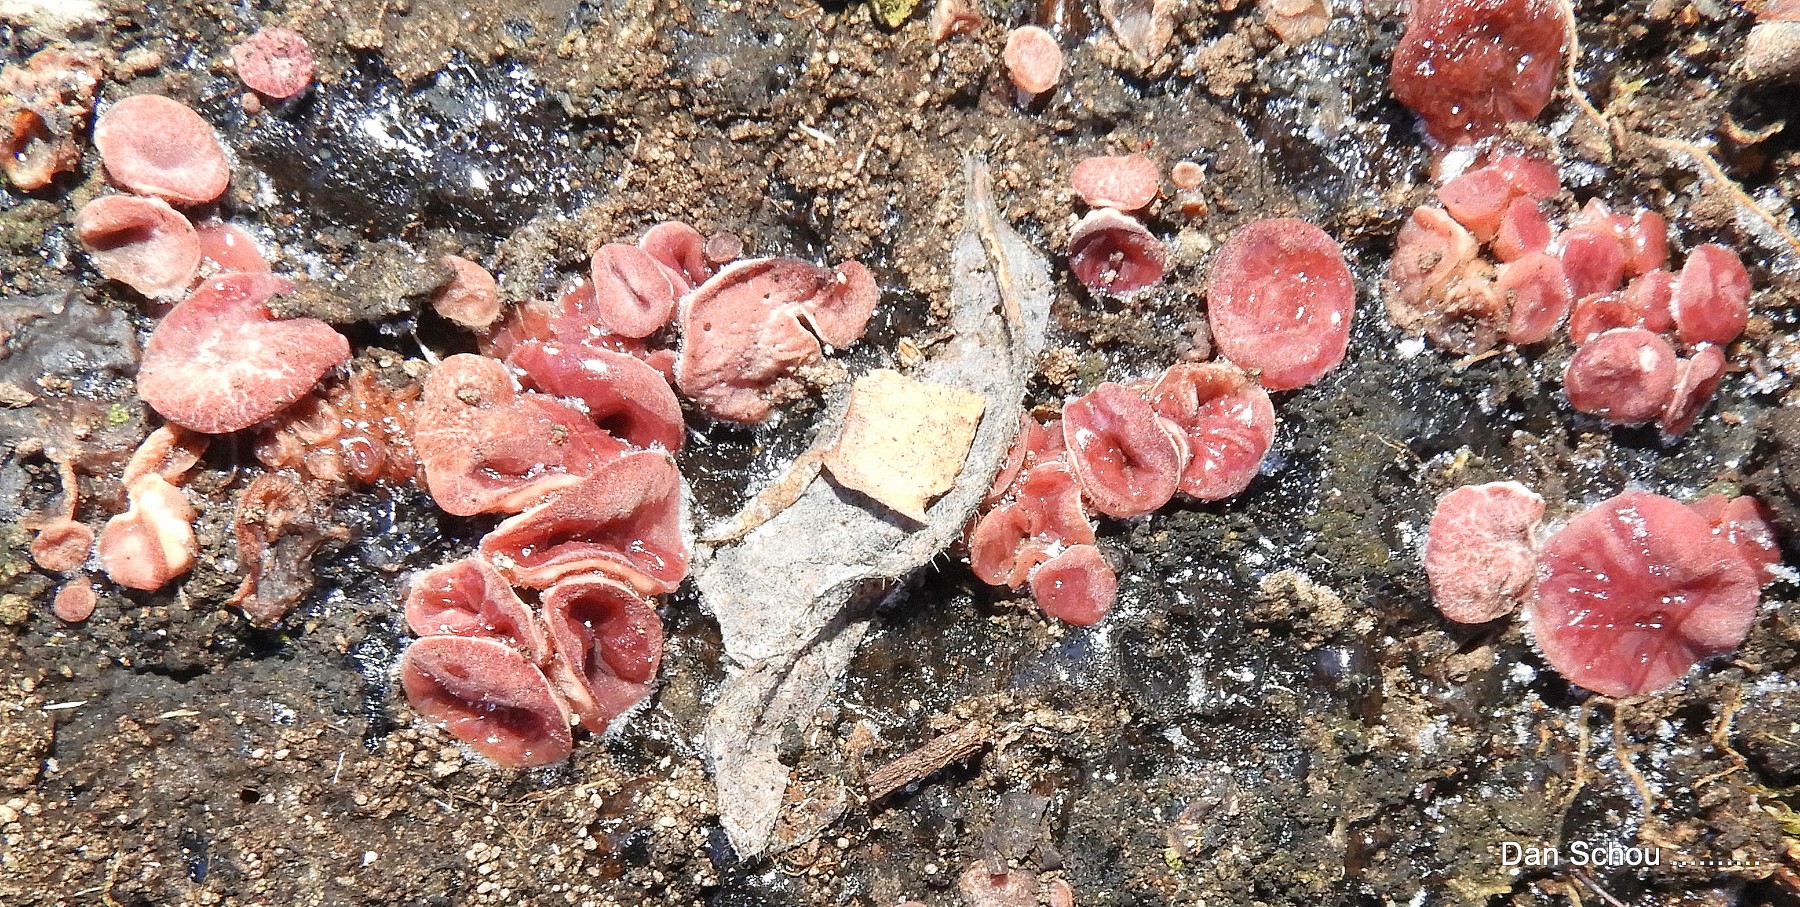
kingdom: Fungi
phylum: Ascomycota
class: Leotiomycetes
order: Helotiales
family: Gelatinodiscaceae
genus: Ascocoryne
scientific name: Ascocoryne cylichnium
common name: stor sejskive
